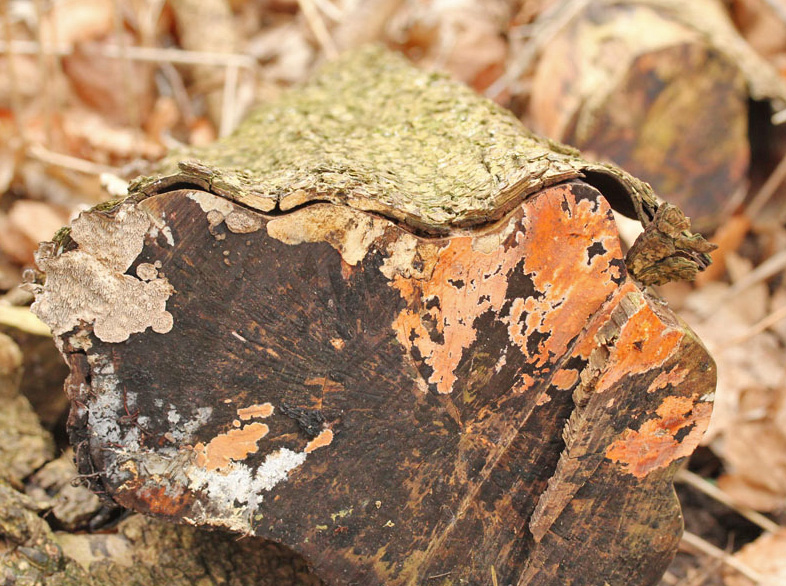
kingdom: Fungi
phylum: Basidiomycota
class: Agaricomycetes
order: Polyporales
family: Polyporaceae
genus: Podofomes
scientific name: Podofomes mollis
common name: blød begporesvamp
